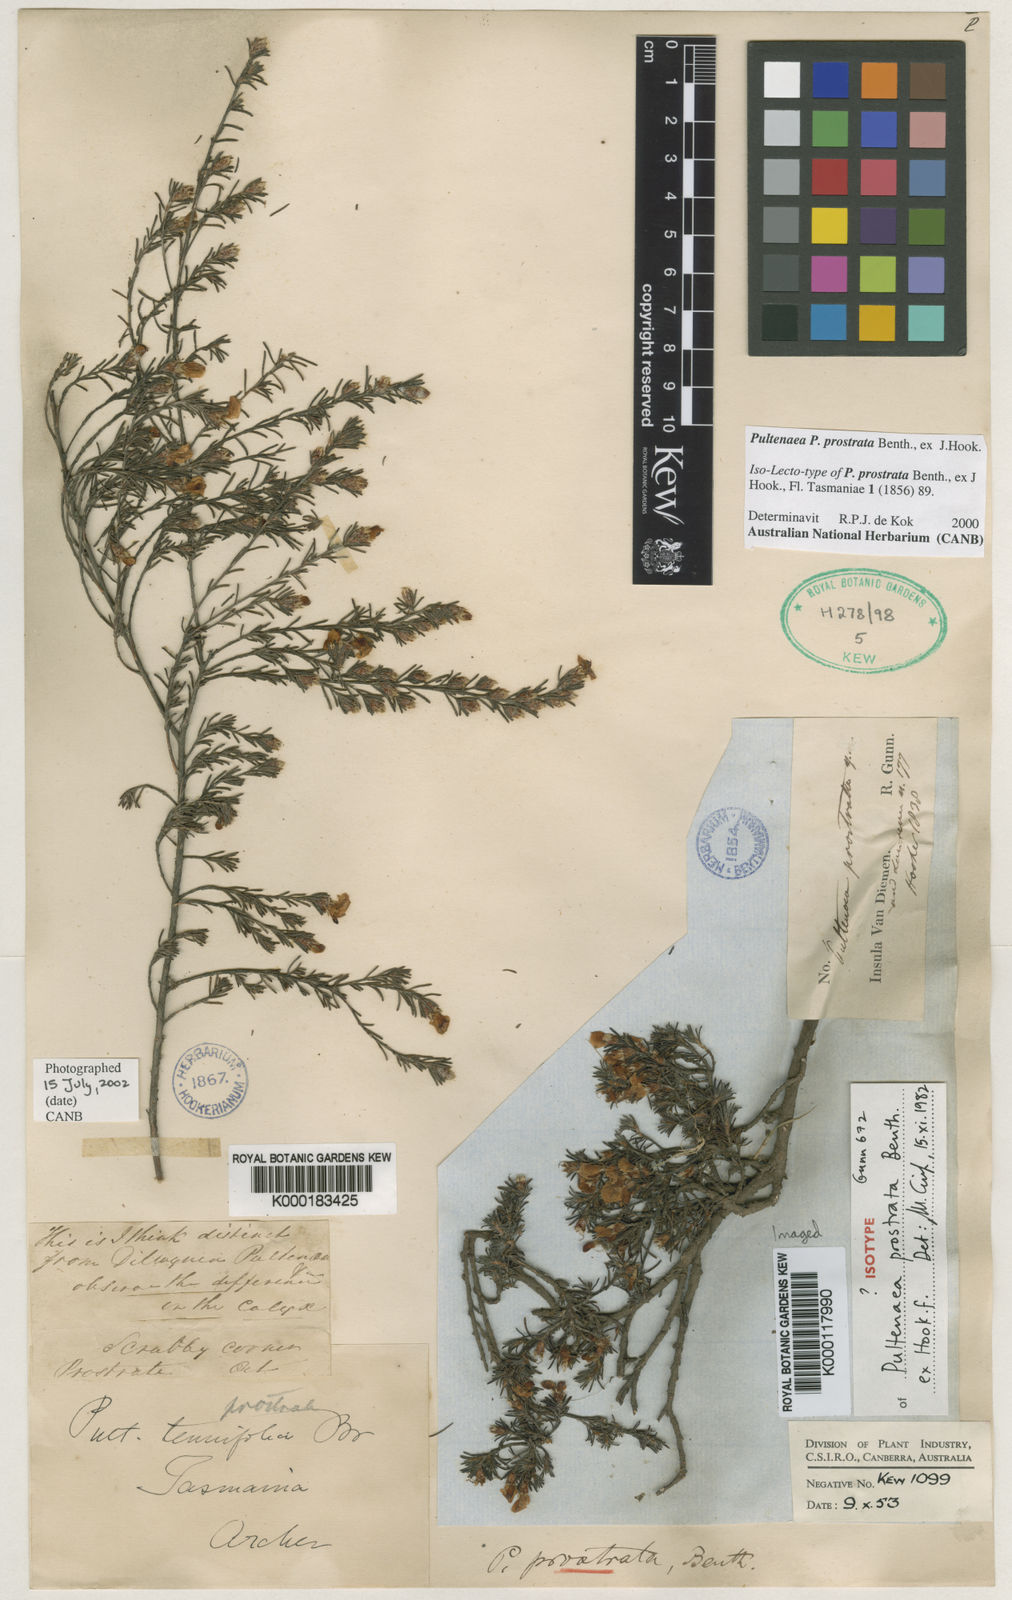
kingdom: Plantae
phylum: Tracheophyta
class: Magnoliopsida
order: Fabales
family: Fabaceae
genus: Pultenaea
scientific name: Pultenaea tenuifolia
